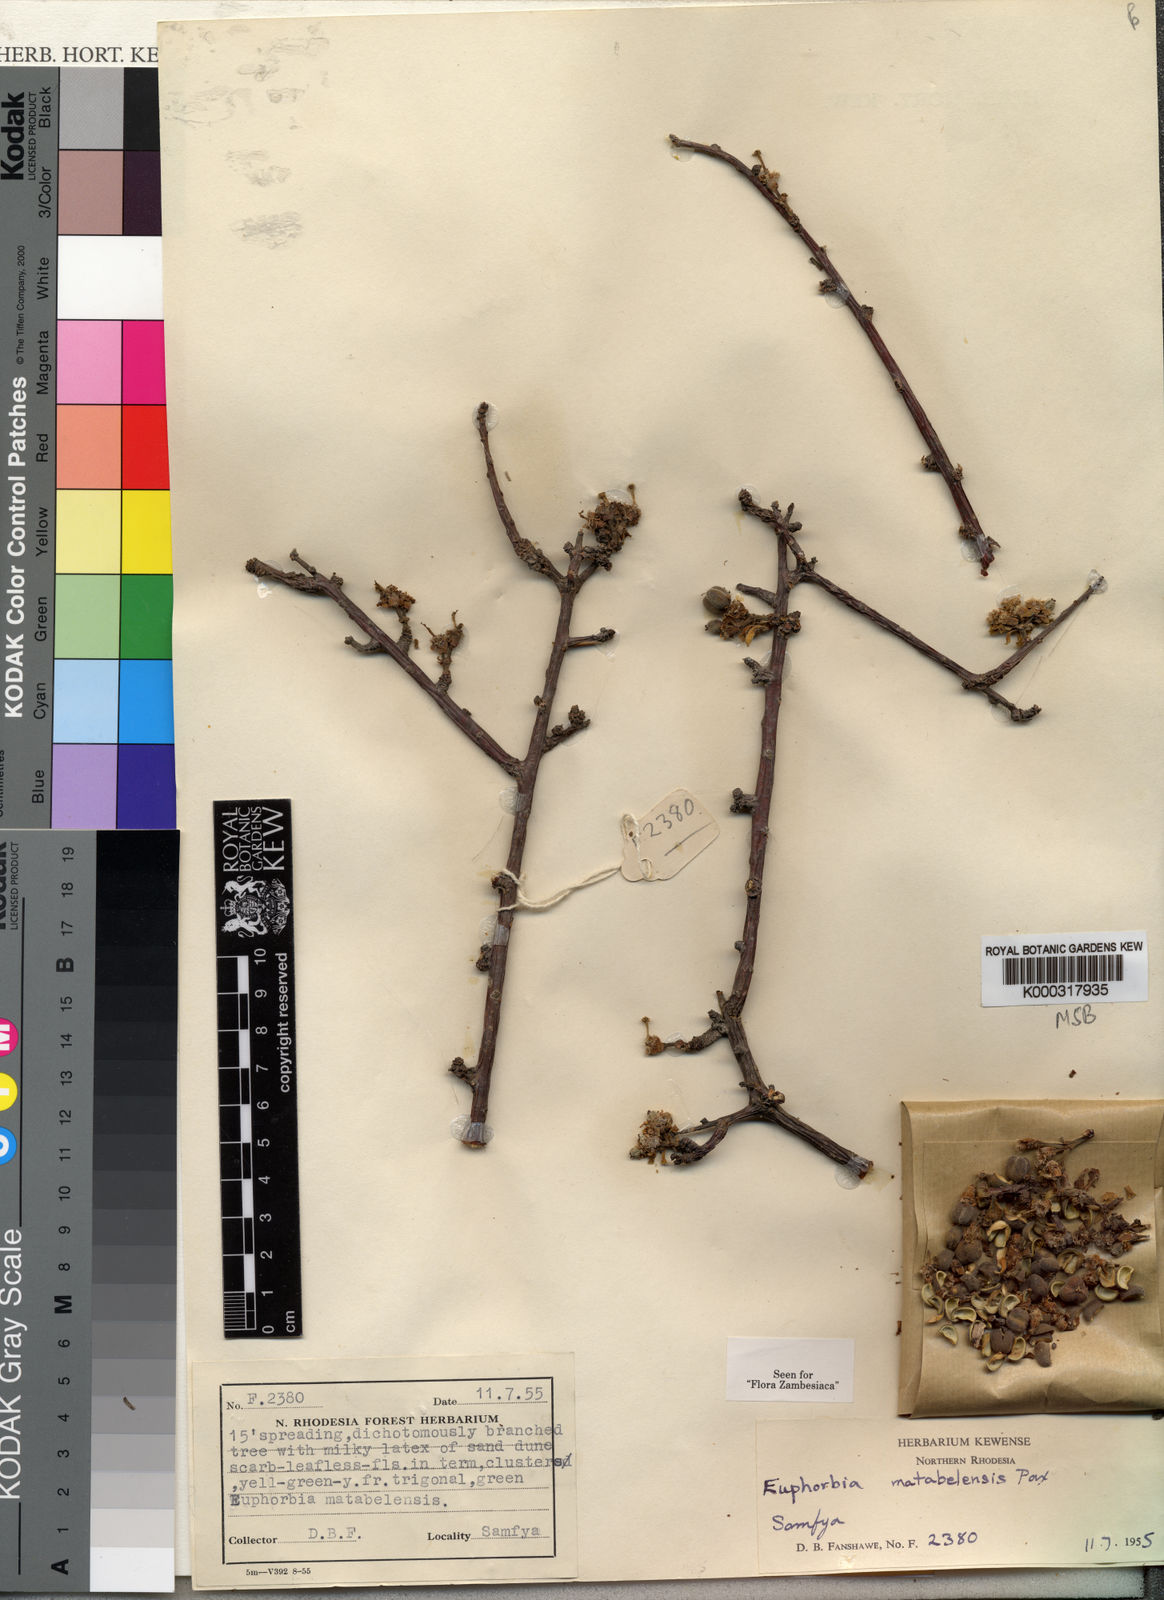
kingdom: Plantae
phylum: Tracheophyta
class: Magnoliopsida
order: Malpighiales
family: Euphorbiaceae
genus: Euphorbia
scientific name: Euphorbia matabelensis
